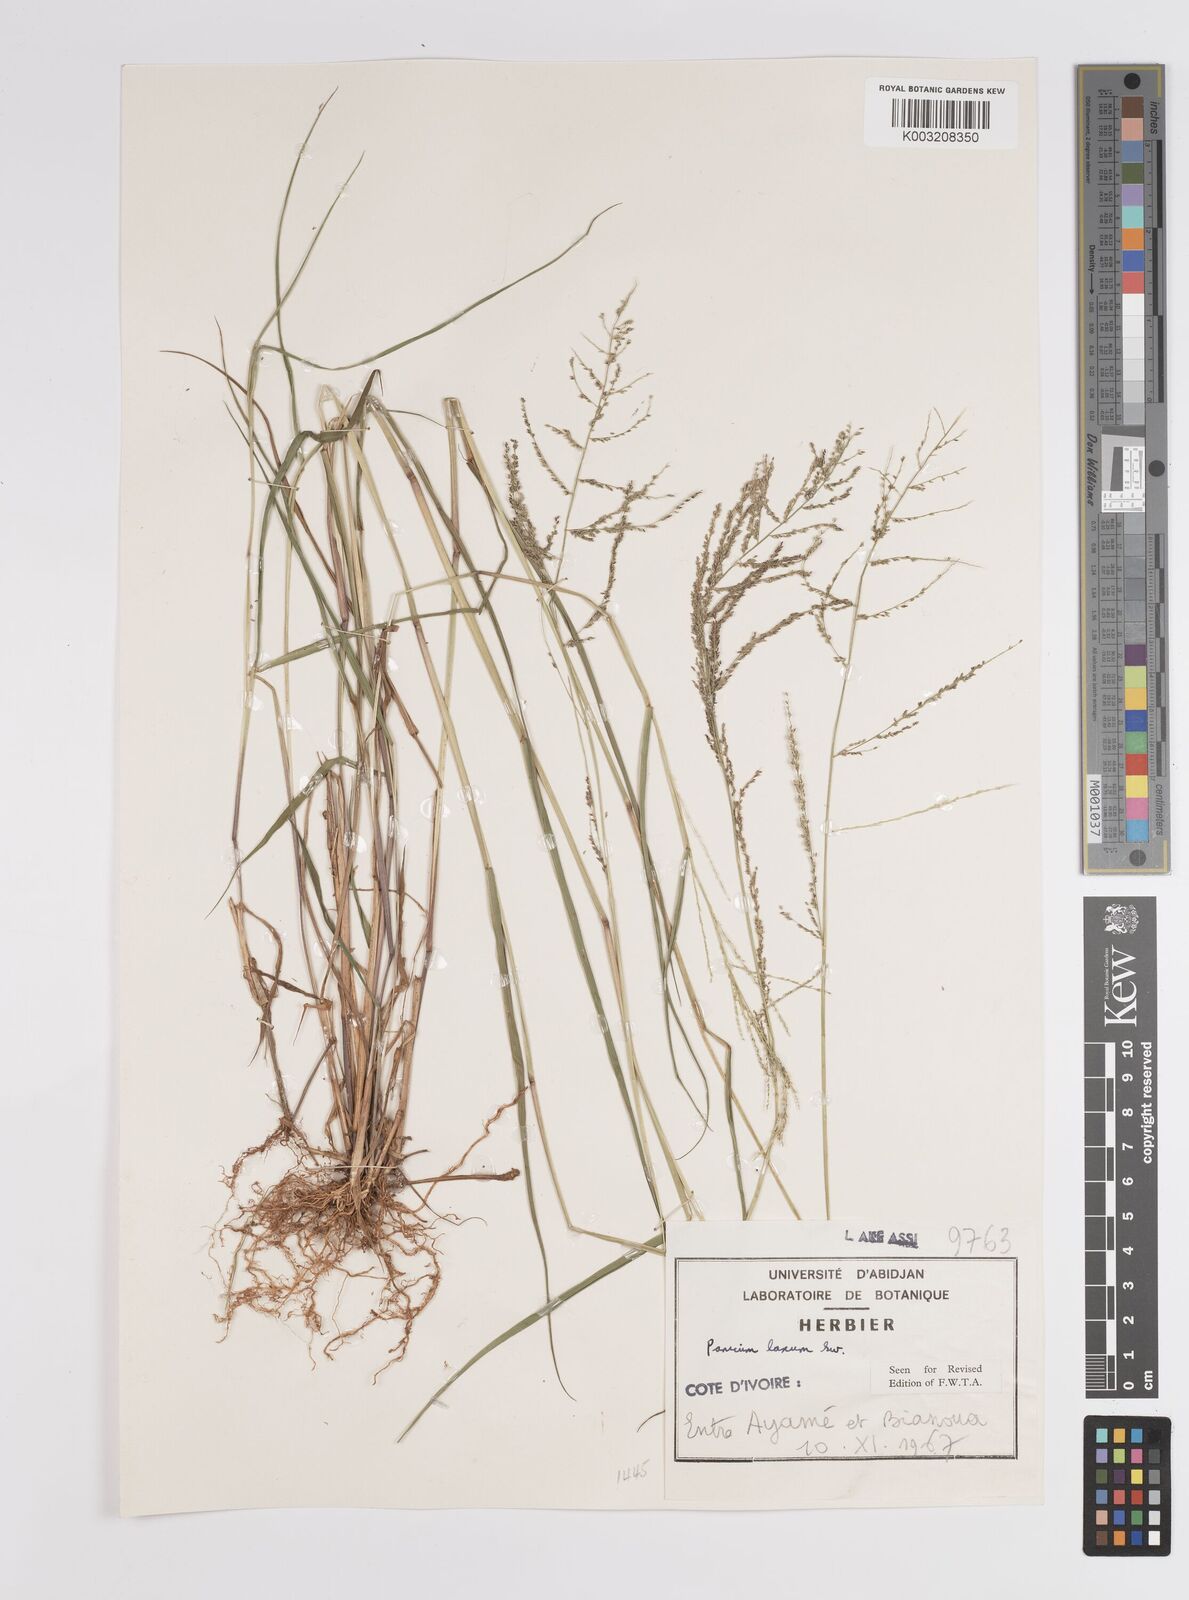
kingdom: Plantae
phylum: Tracheophyta
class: Liliopsida
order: Poales
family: Poaceae
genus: Steinchisma
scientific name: Steinchisma laxum
